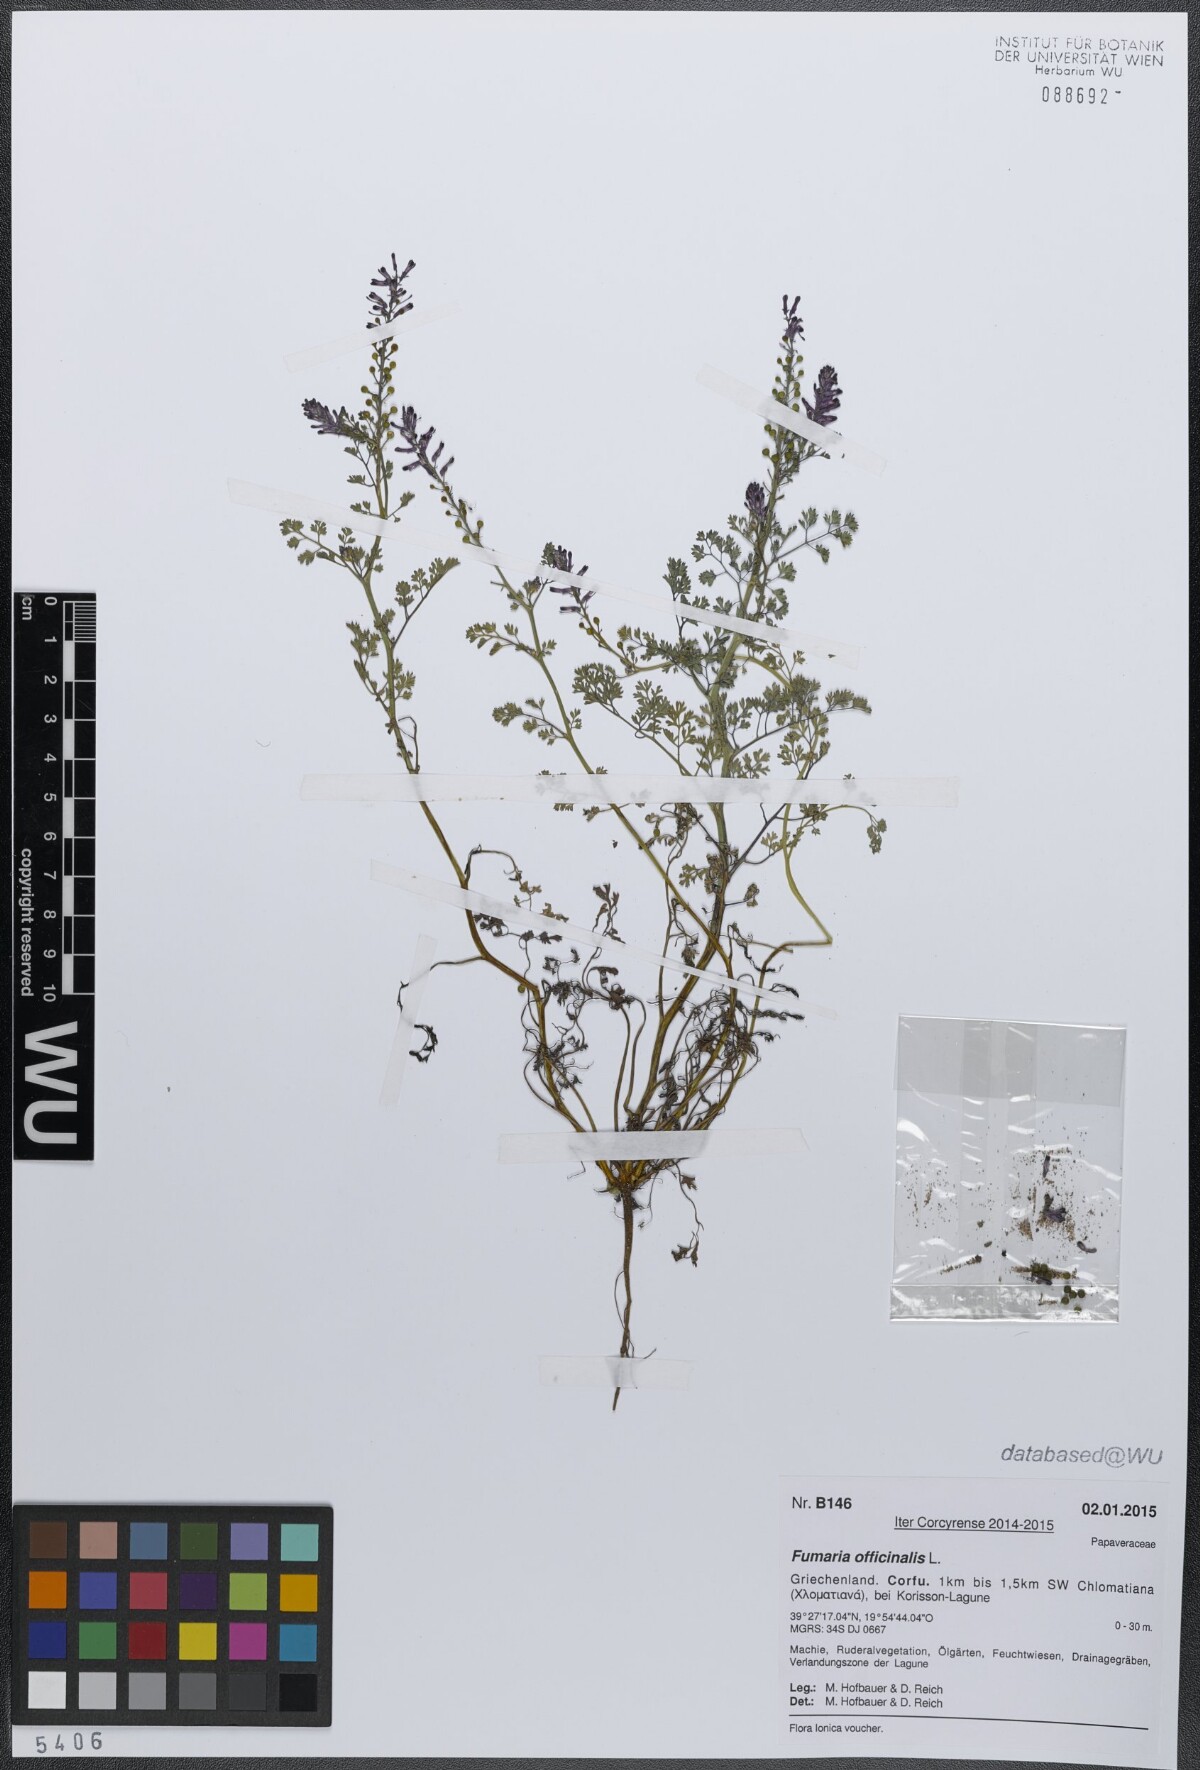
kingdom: Plantae
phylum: Tracheophyta
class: Magnoliopsida
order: Ranunculales
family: Papaveraceae
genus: Fumaria
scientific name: Fumaria officinalis
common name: Common fumitory
